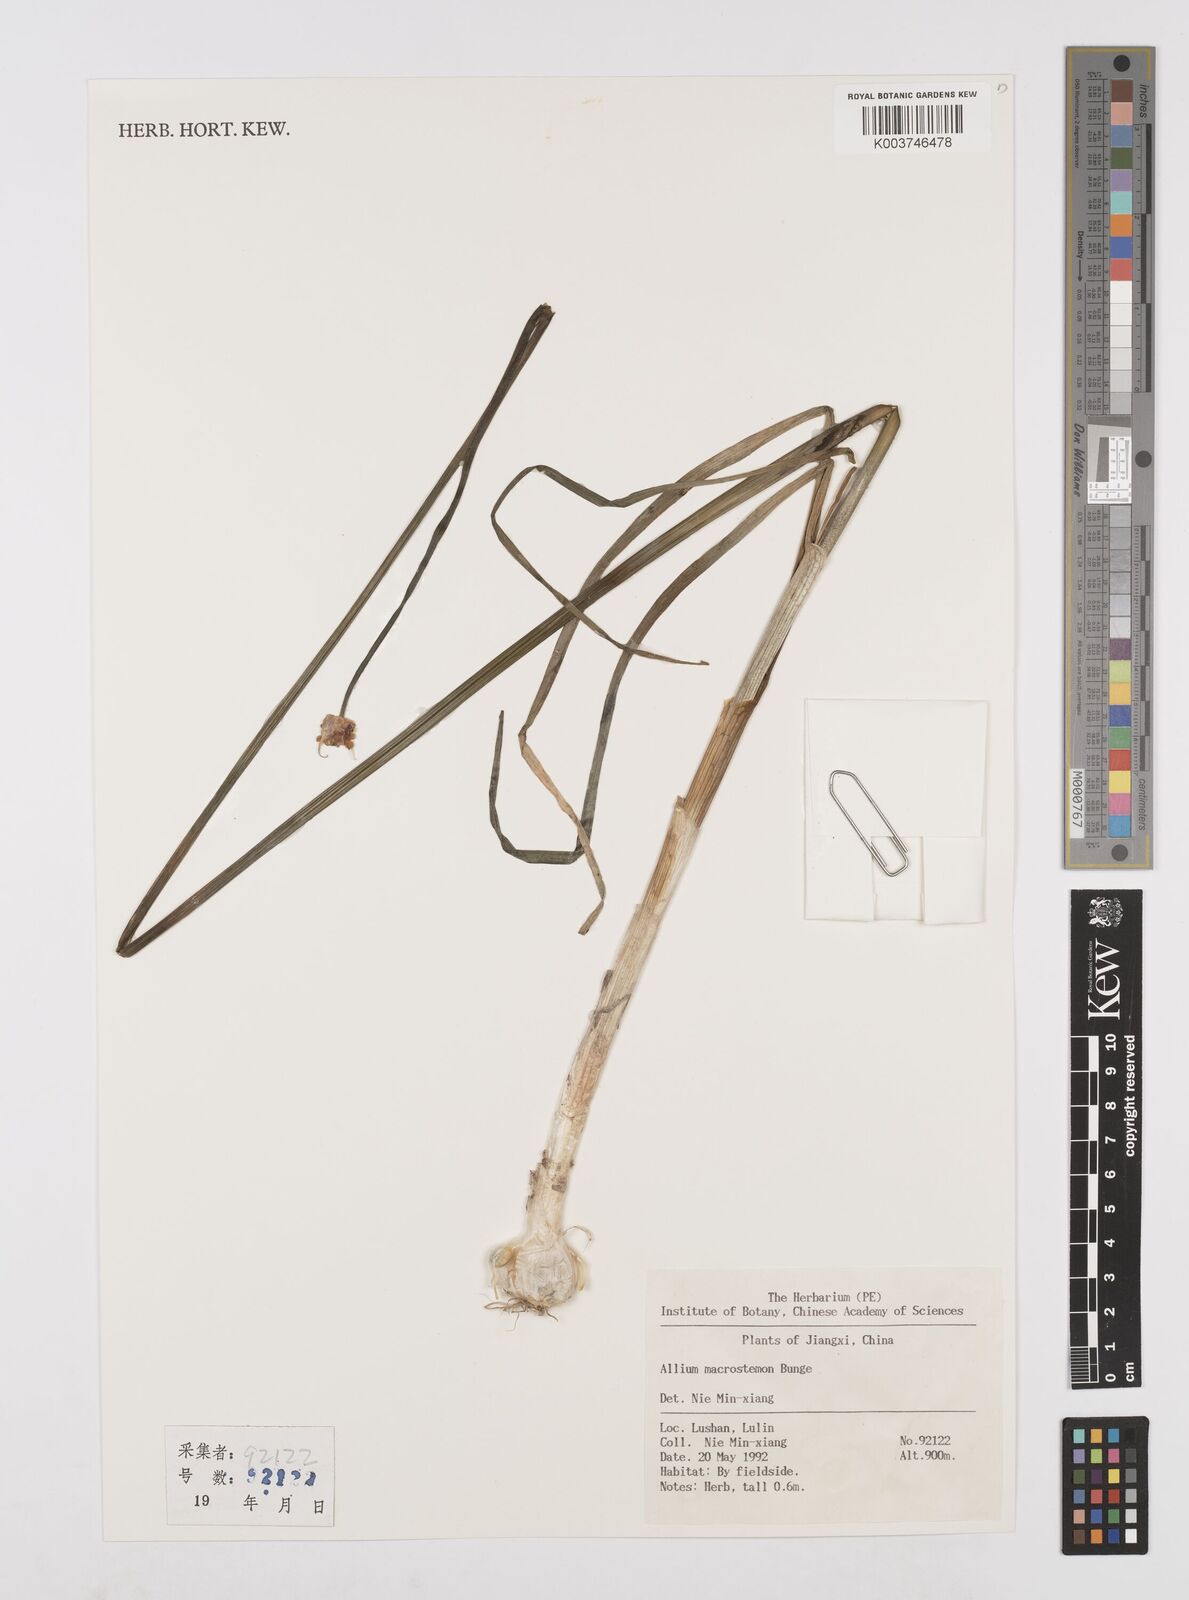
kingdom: Plantae
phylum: Tracheophyta
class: Liliopsida
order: Asparagales
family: Amaryllidaceae
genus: Allium
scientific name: Allium macrostemon
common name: Chinese garlic
